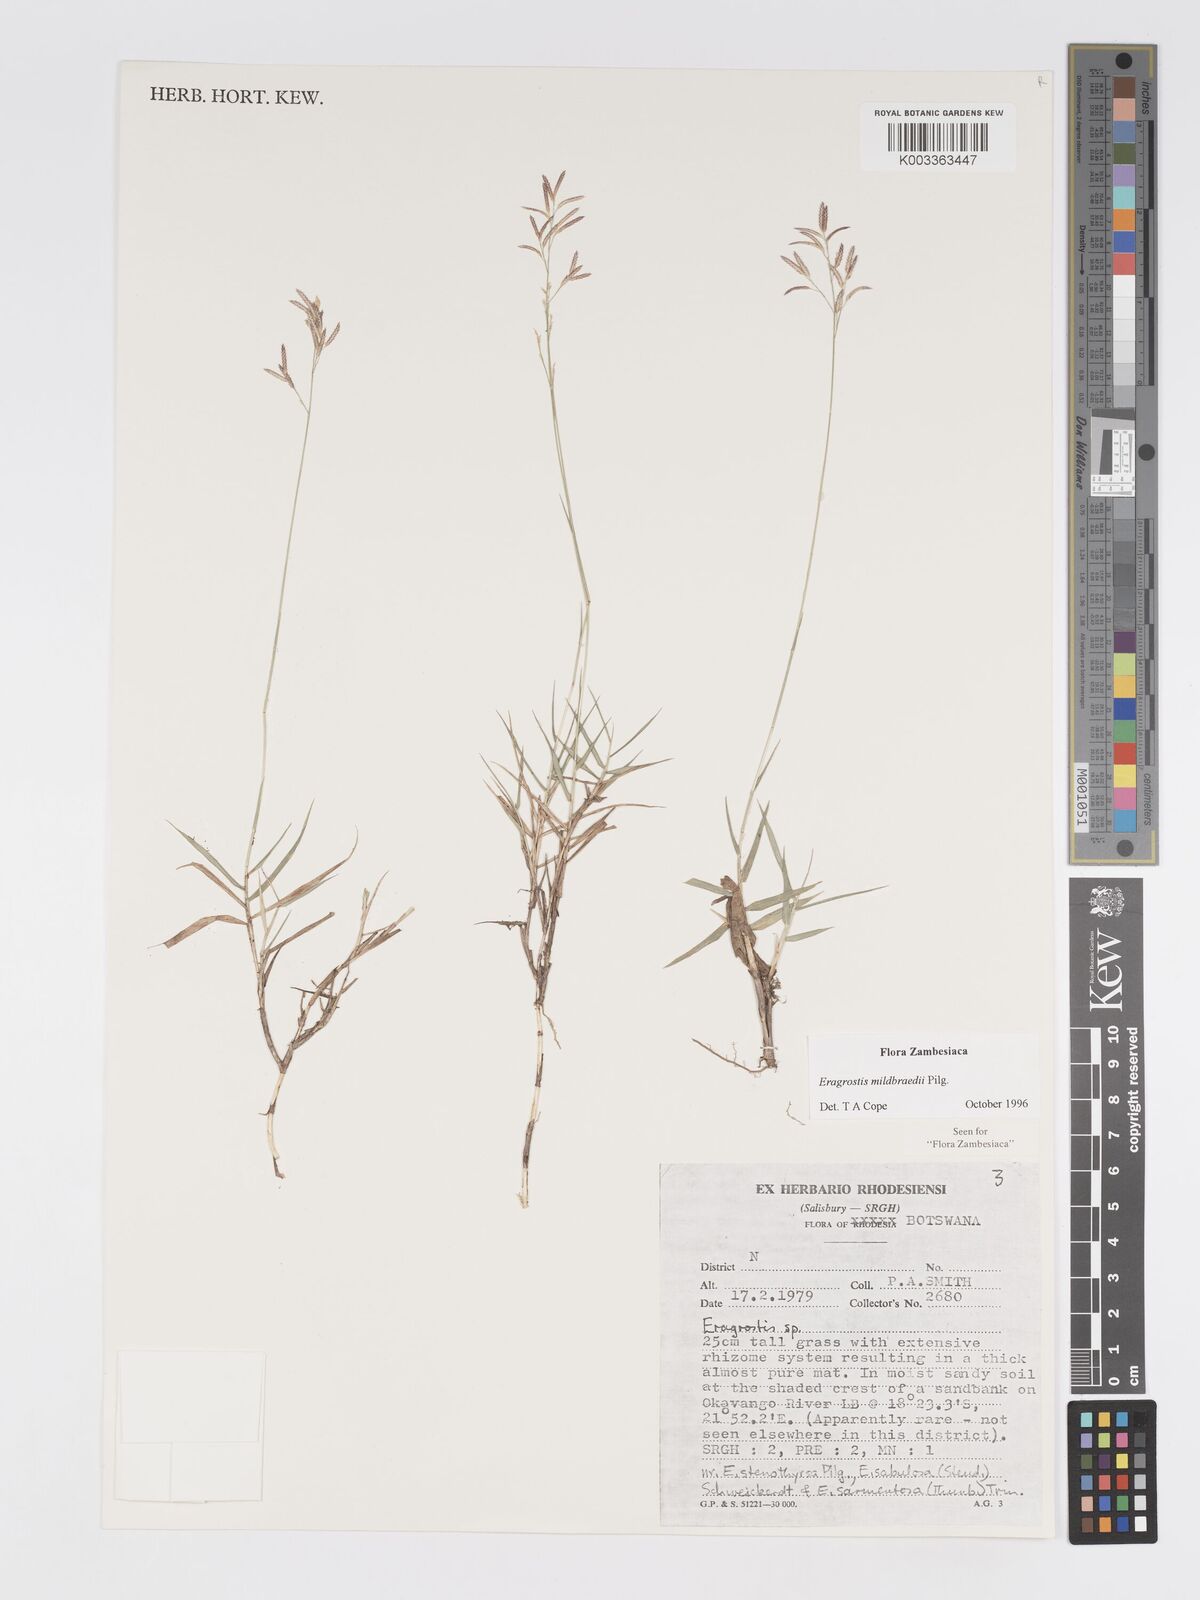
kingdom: Plantae
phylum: Tracheophyta
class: Liliopsida
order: Poales
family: Poaceae
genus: Eragrostis
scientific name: Eragrostis mildbraedii
